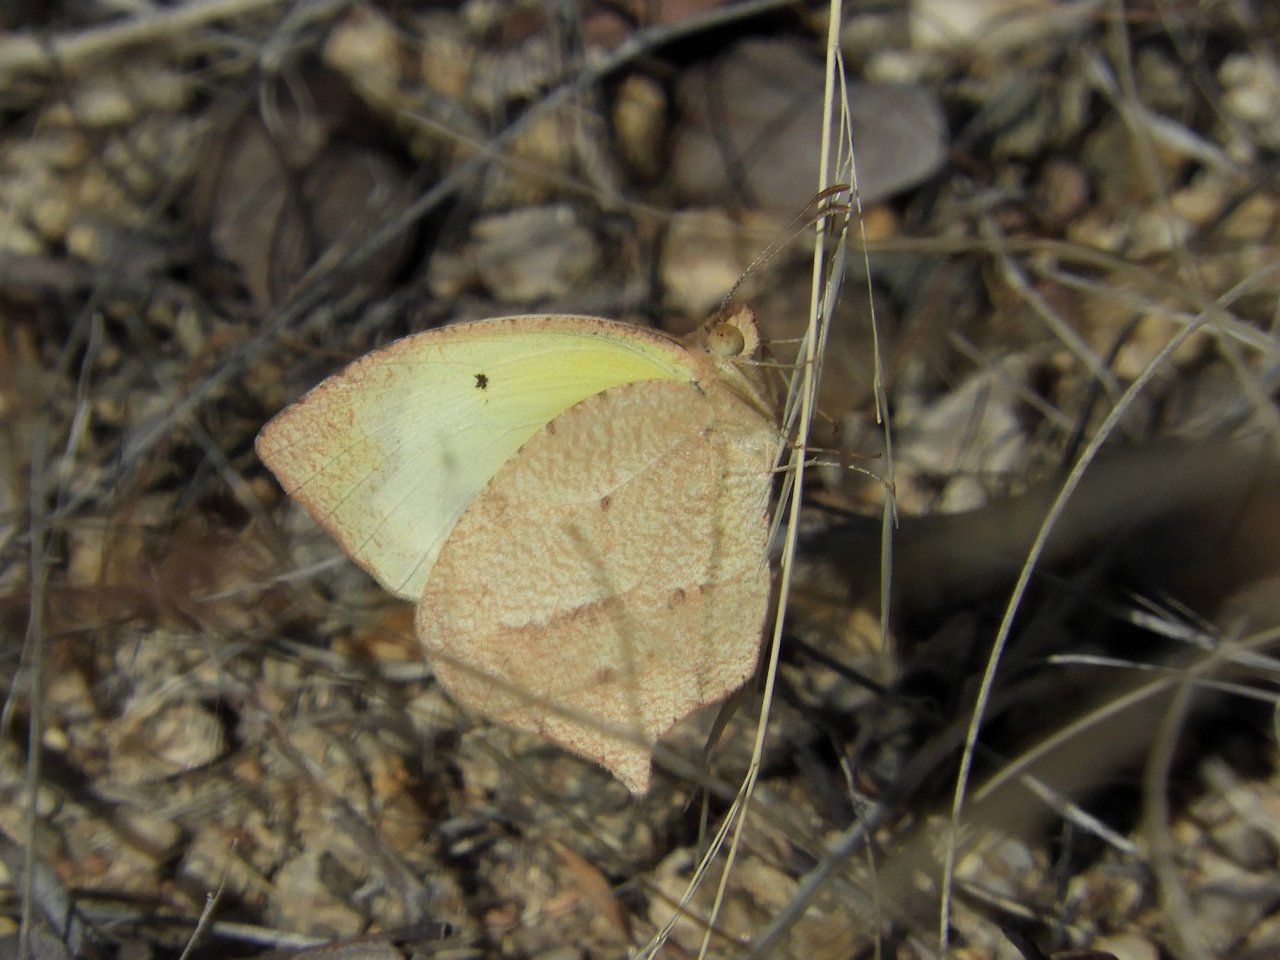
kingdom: Animalia
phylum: Arthropoda
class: Insecta
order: Lepidoptera
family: Pieridae
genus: Pyrisitia
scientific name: Pyrisitia proterpia
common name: Tailed Orange
